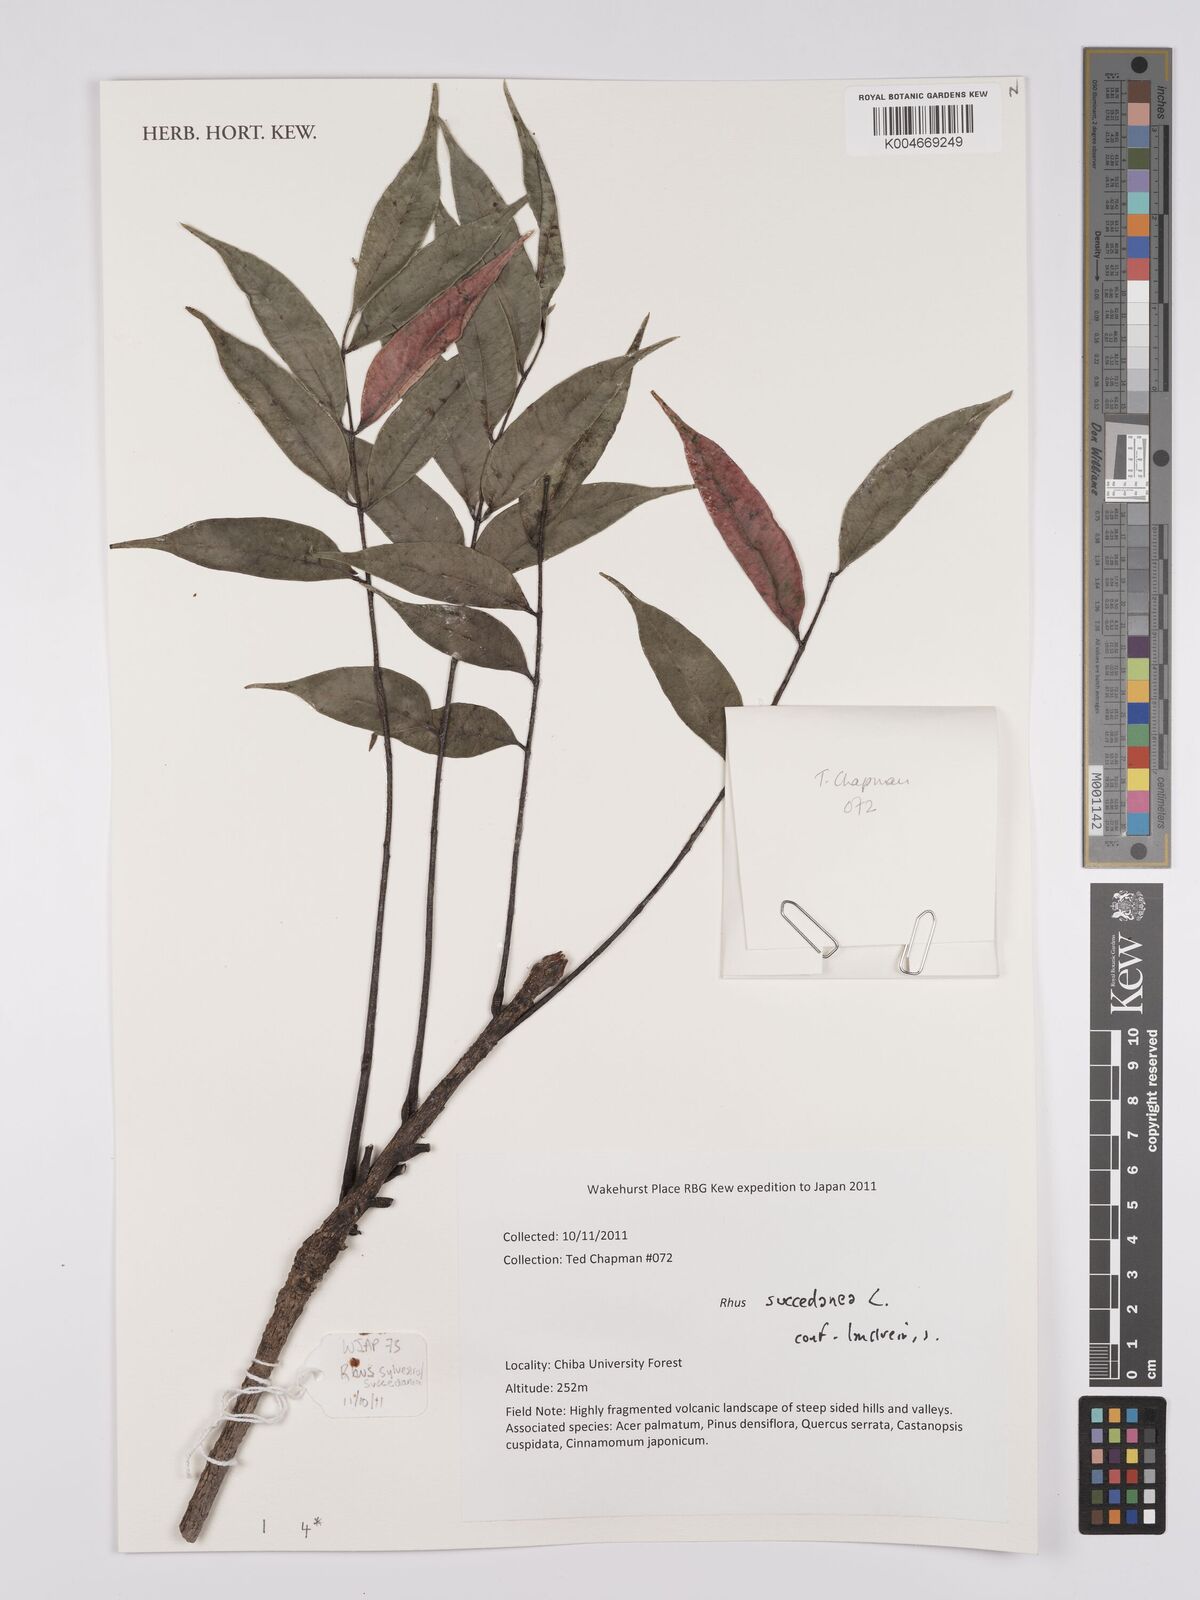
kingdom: Plantae
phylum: Tracheophyta
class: Magnoliopsida
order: Sapindales
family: Anacardiaceae
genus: Toxicodendron
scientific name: Toxicodendron succedaneum
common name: Wax tree
